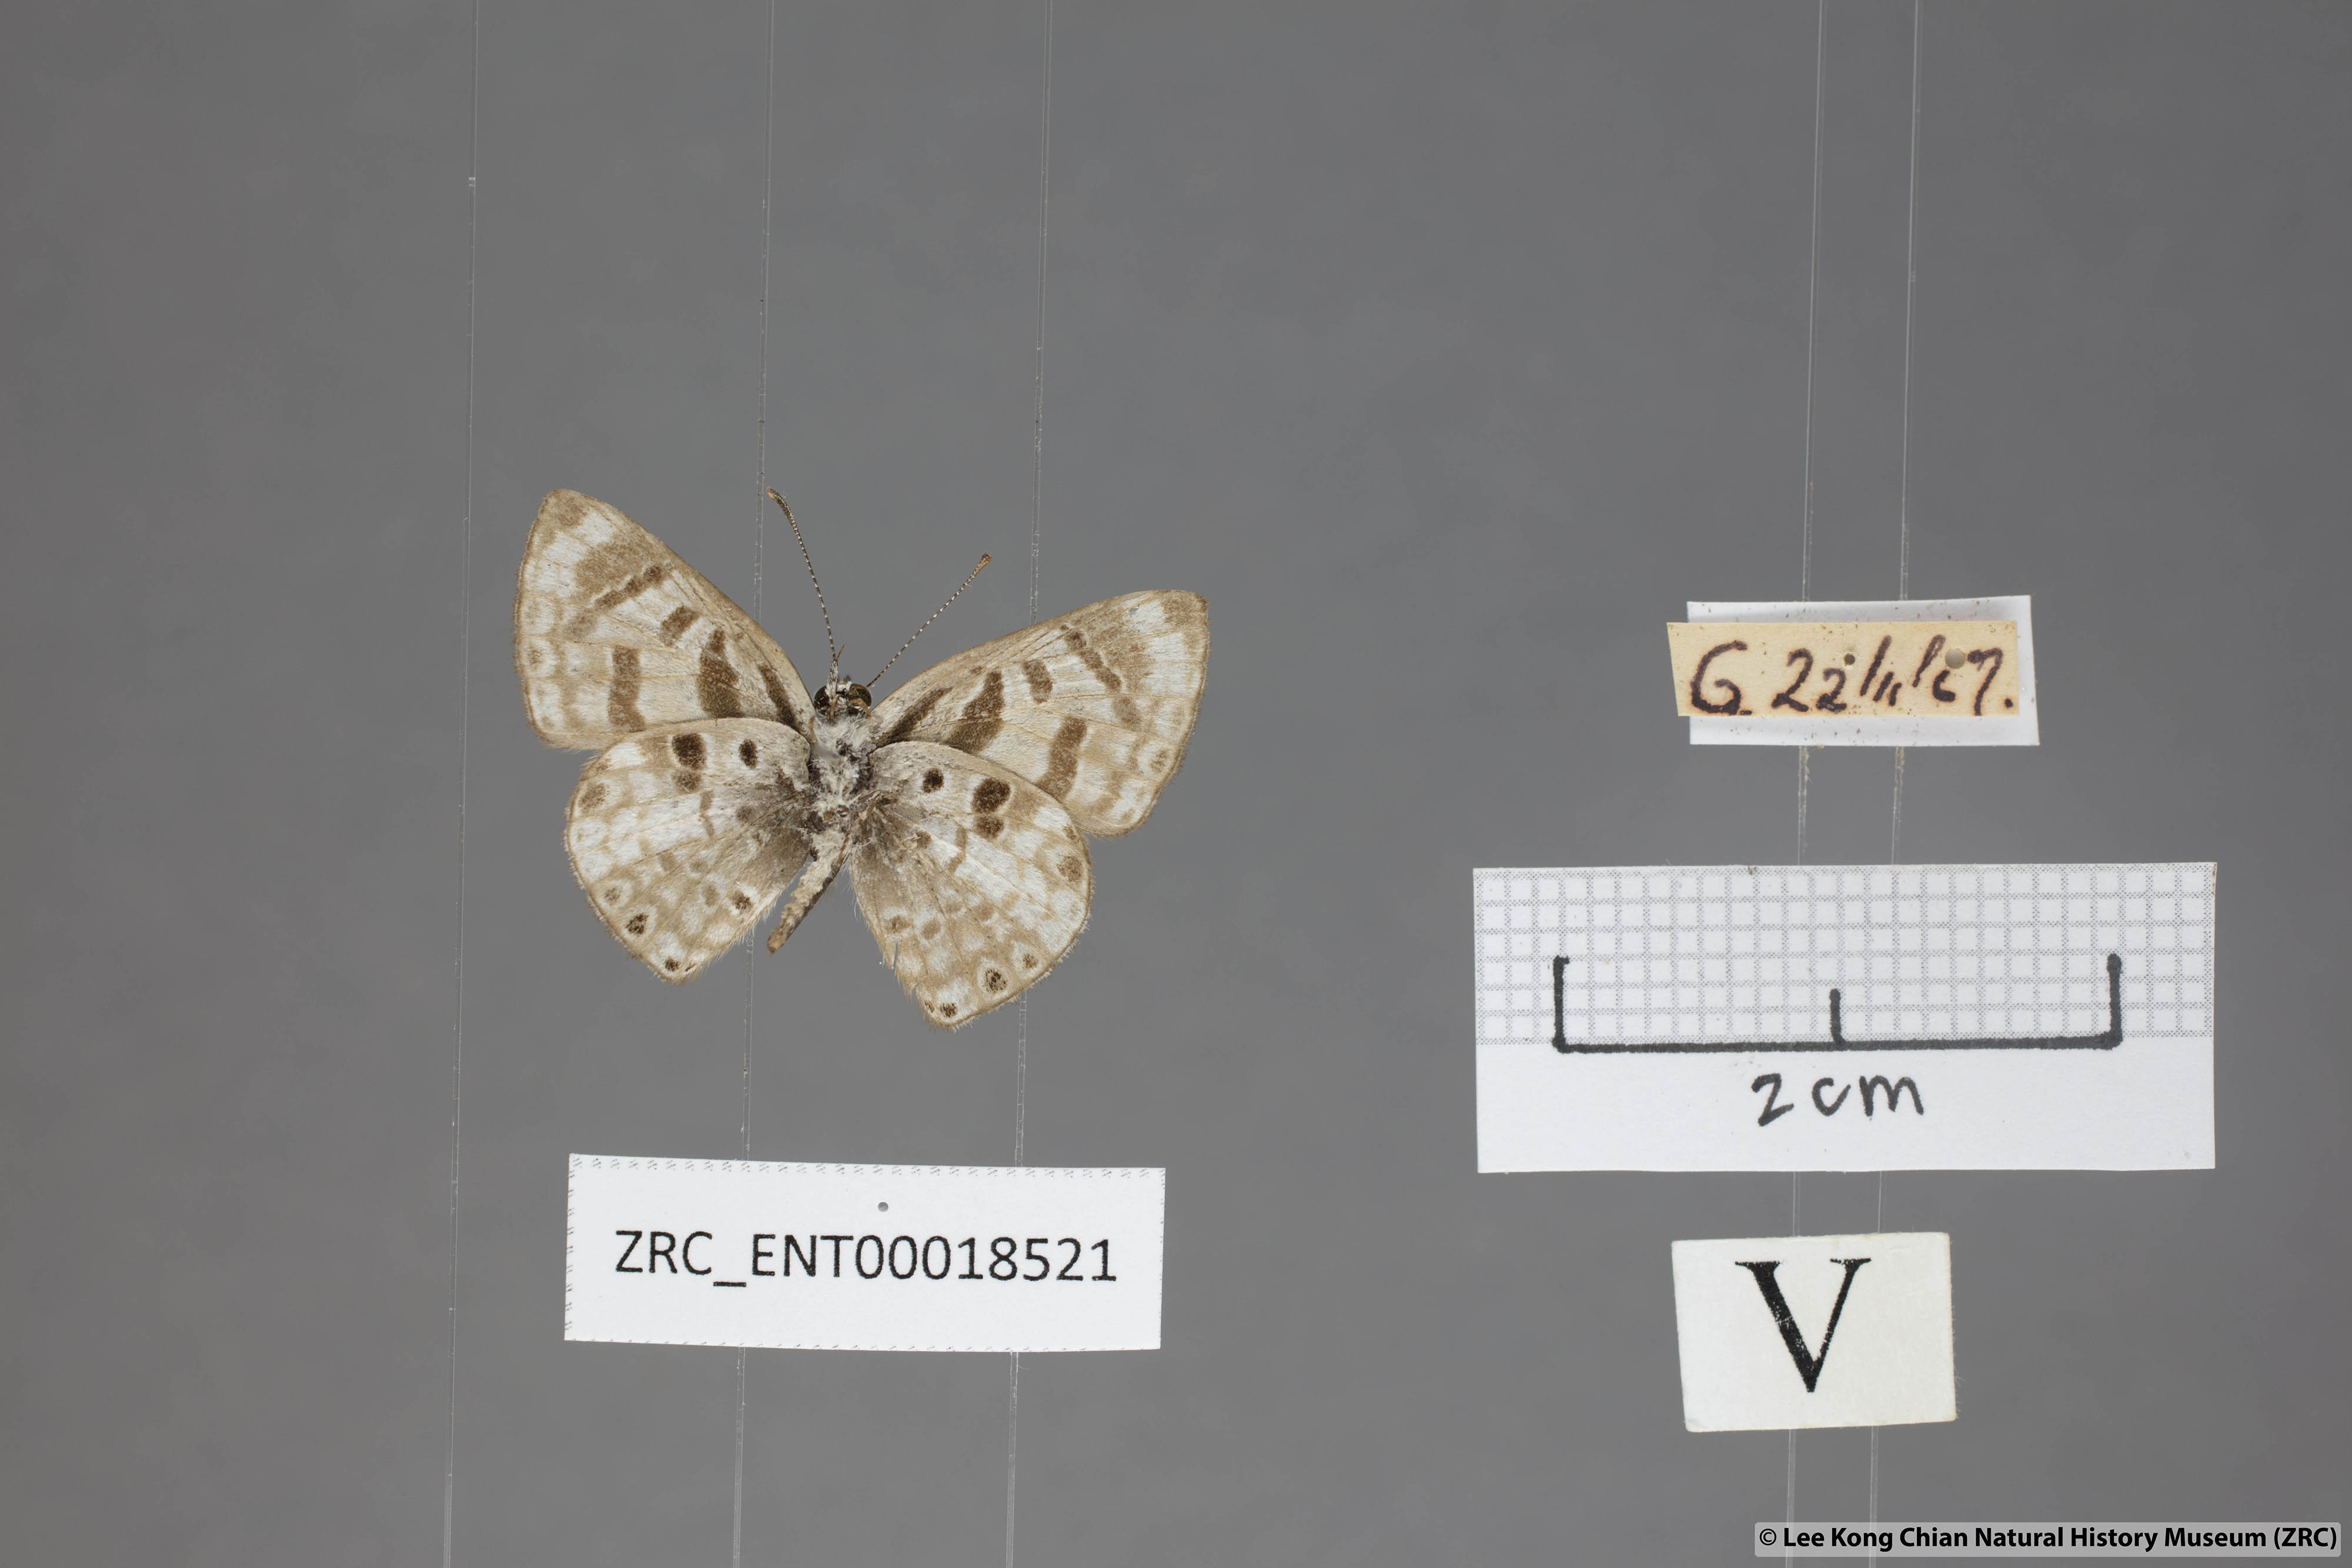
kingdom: Animalia
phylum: Arthropoda
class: Insecta
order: Lepidoptera
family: Lycaenidae
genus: Niphanda
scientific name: Niphanda cymbia
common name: Small pointed pierrot
